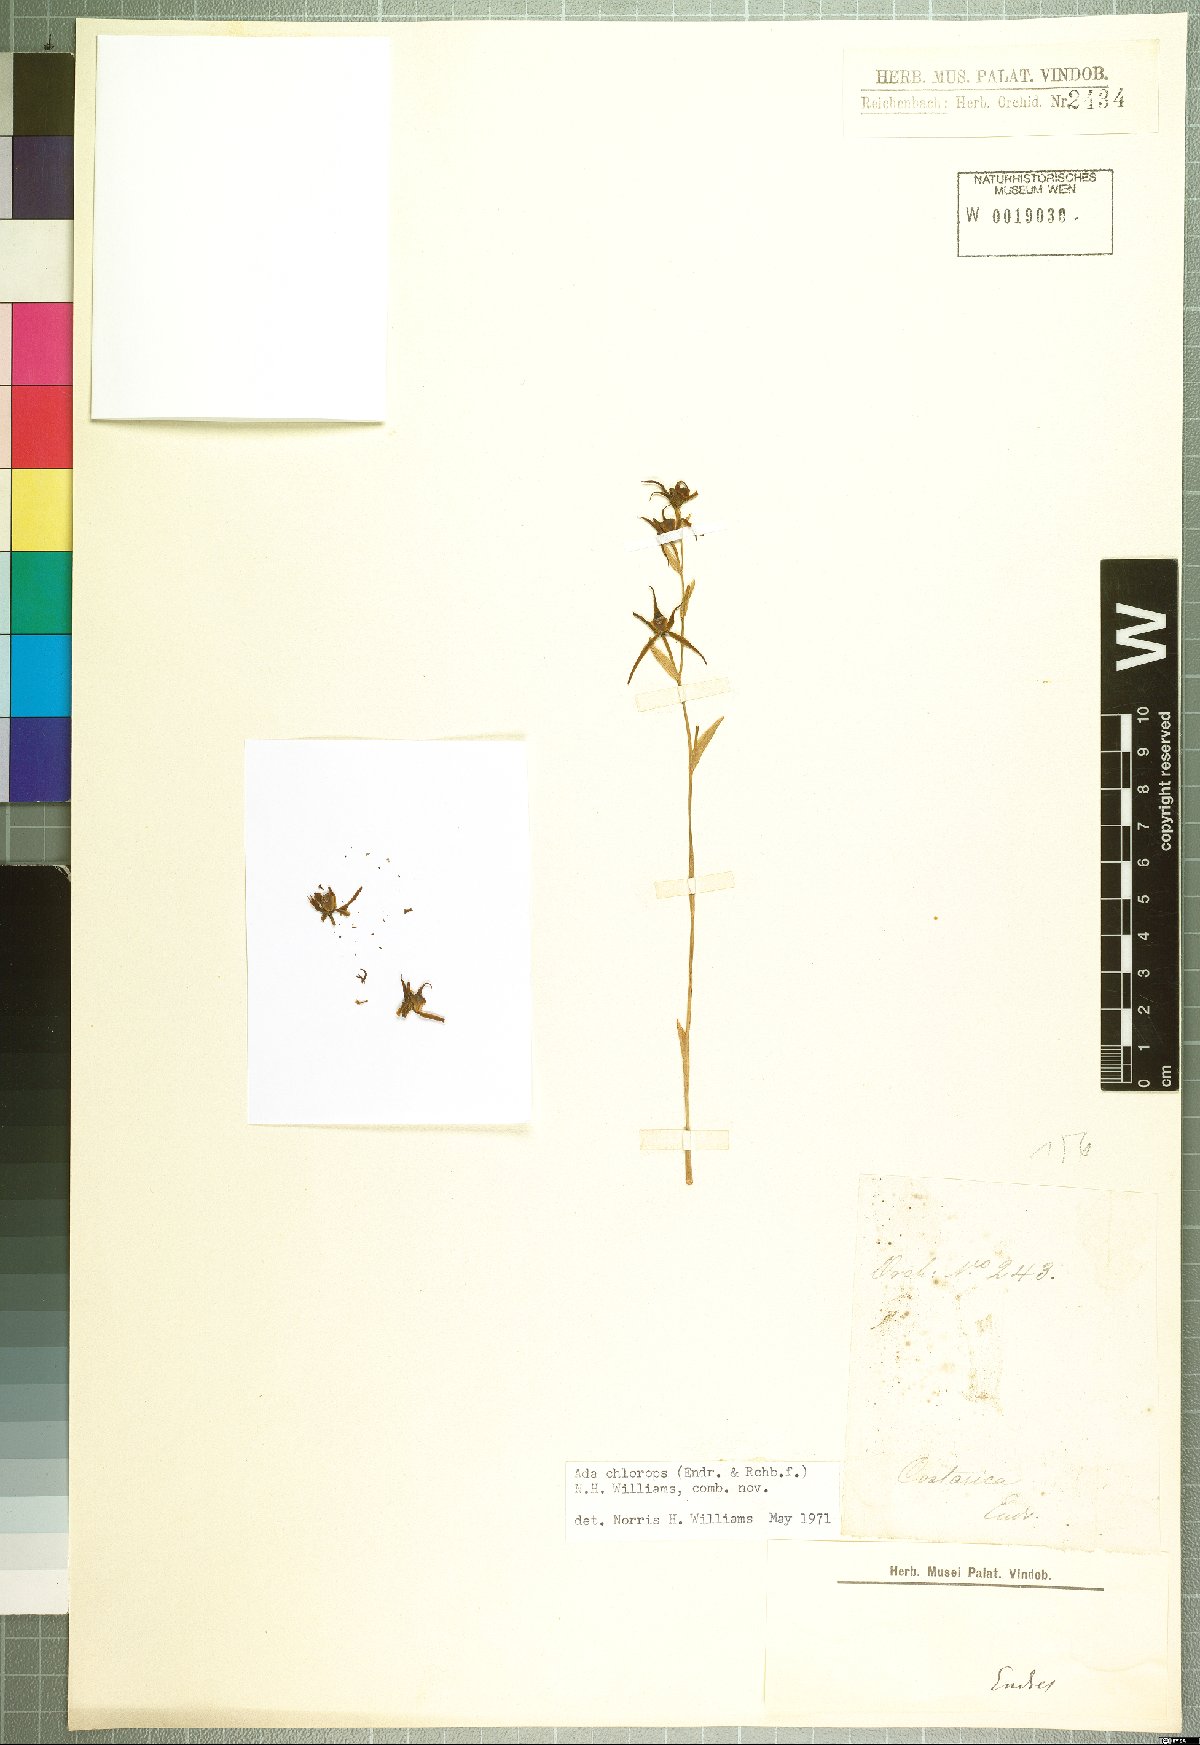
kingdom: Plantae
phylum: Tracheophyta
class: Liliopsida
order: Asparagales
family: Orchidaceae
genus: Brassia
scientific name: Brassia chlorops
